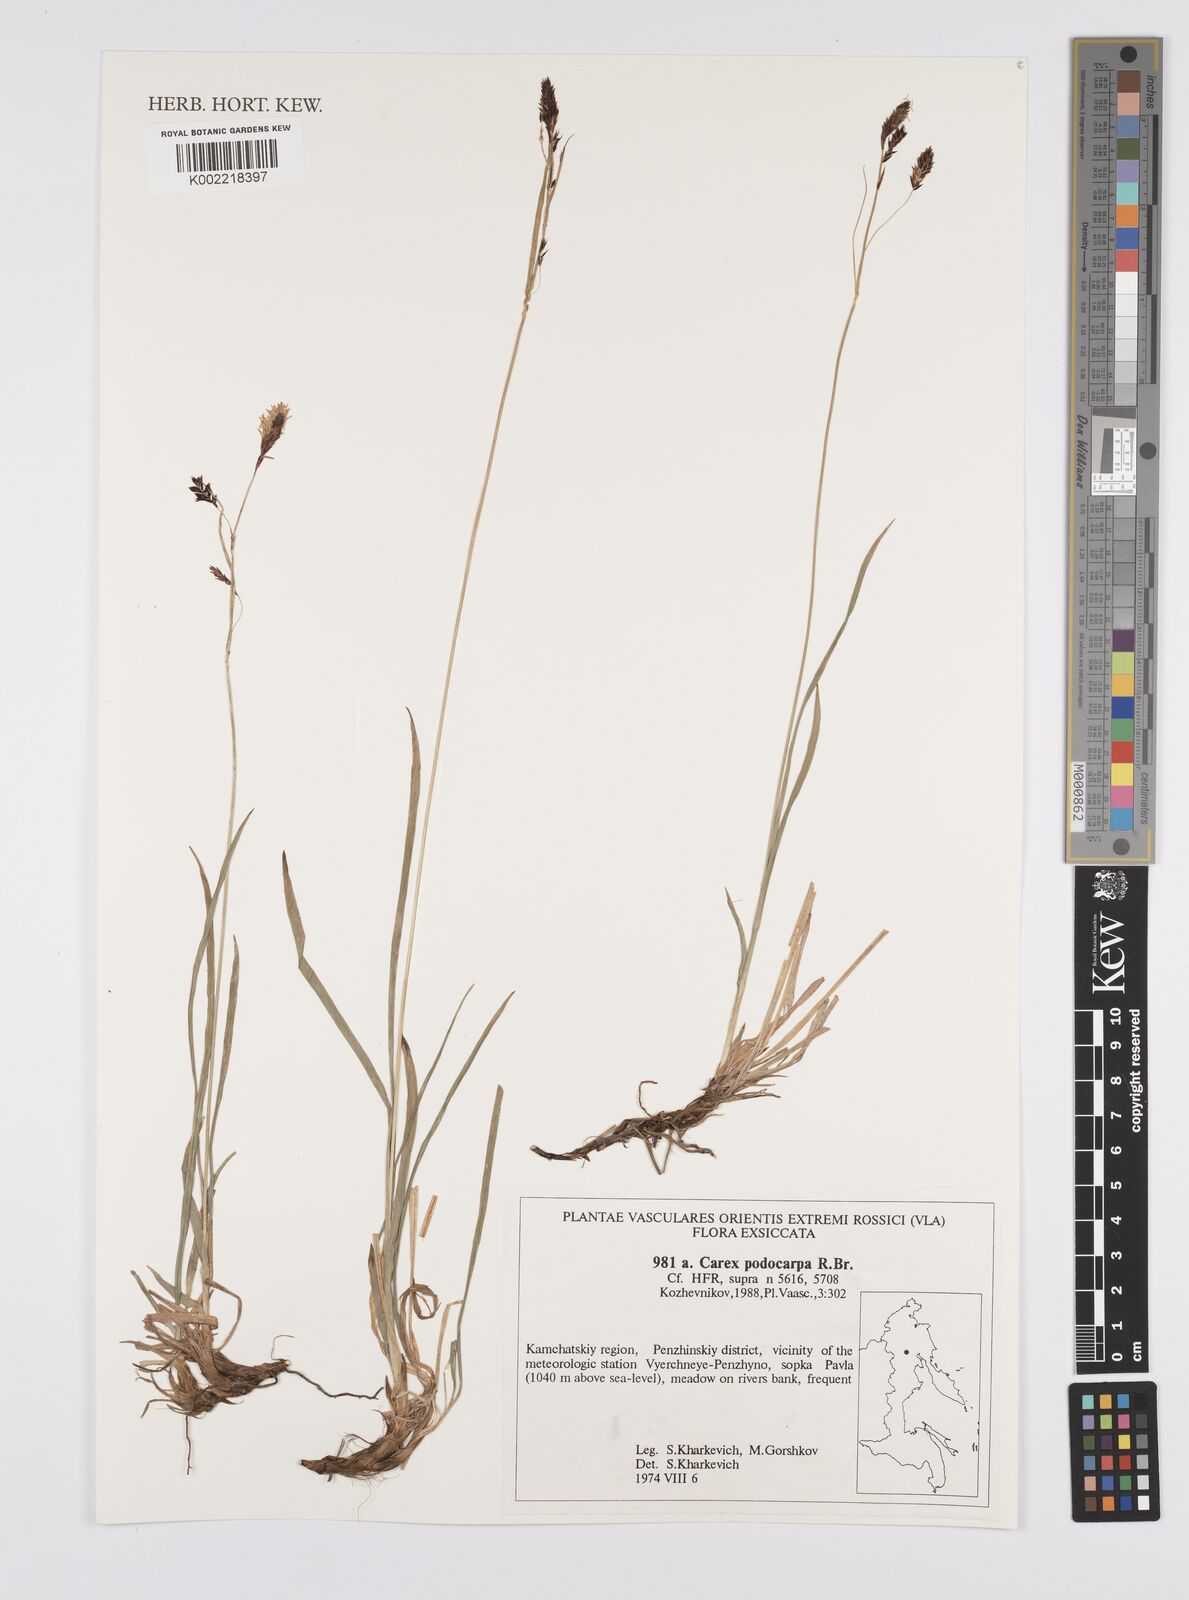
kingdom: Plantae
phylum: Tracheophyta
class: Liliopsida
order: Poales
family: Cyperaceae
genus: Carex
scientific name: Carex podocarpa
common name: Alpine sedge
